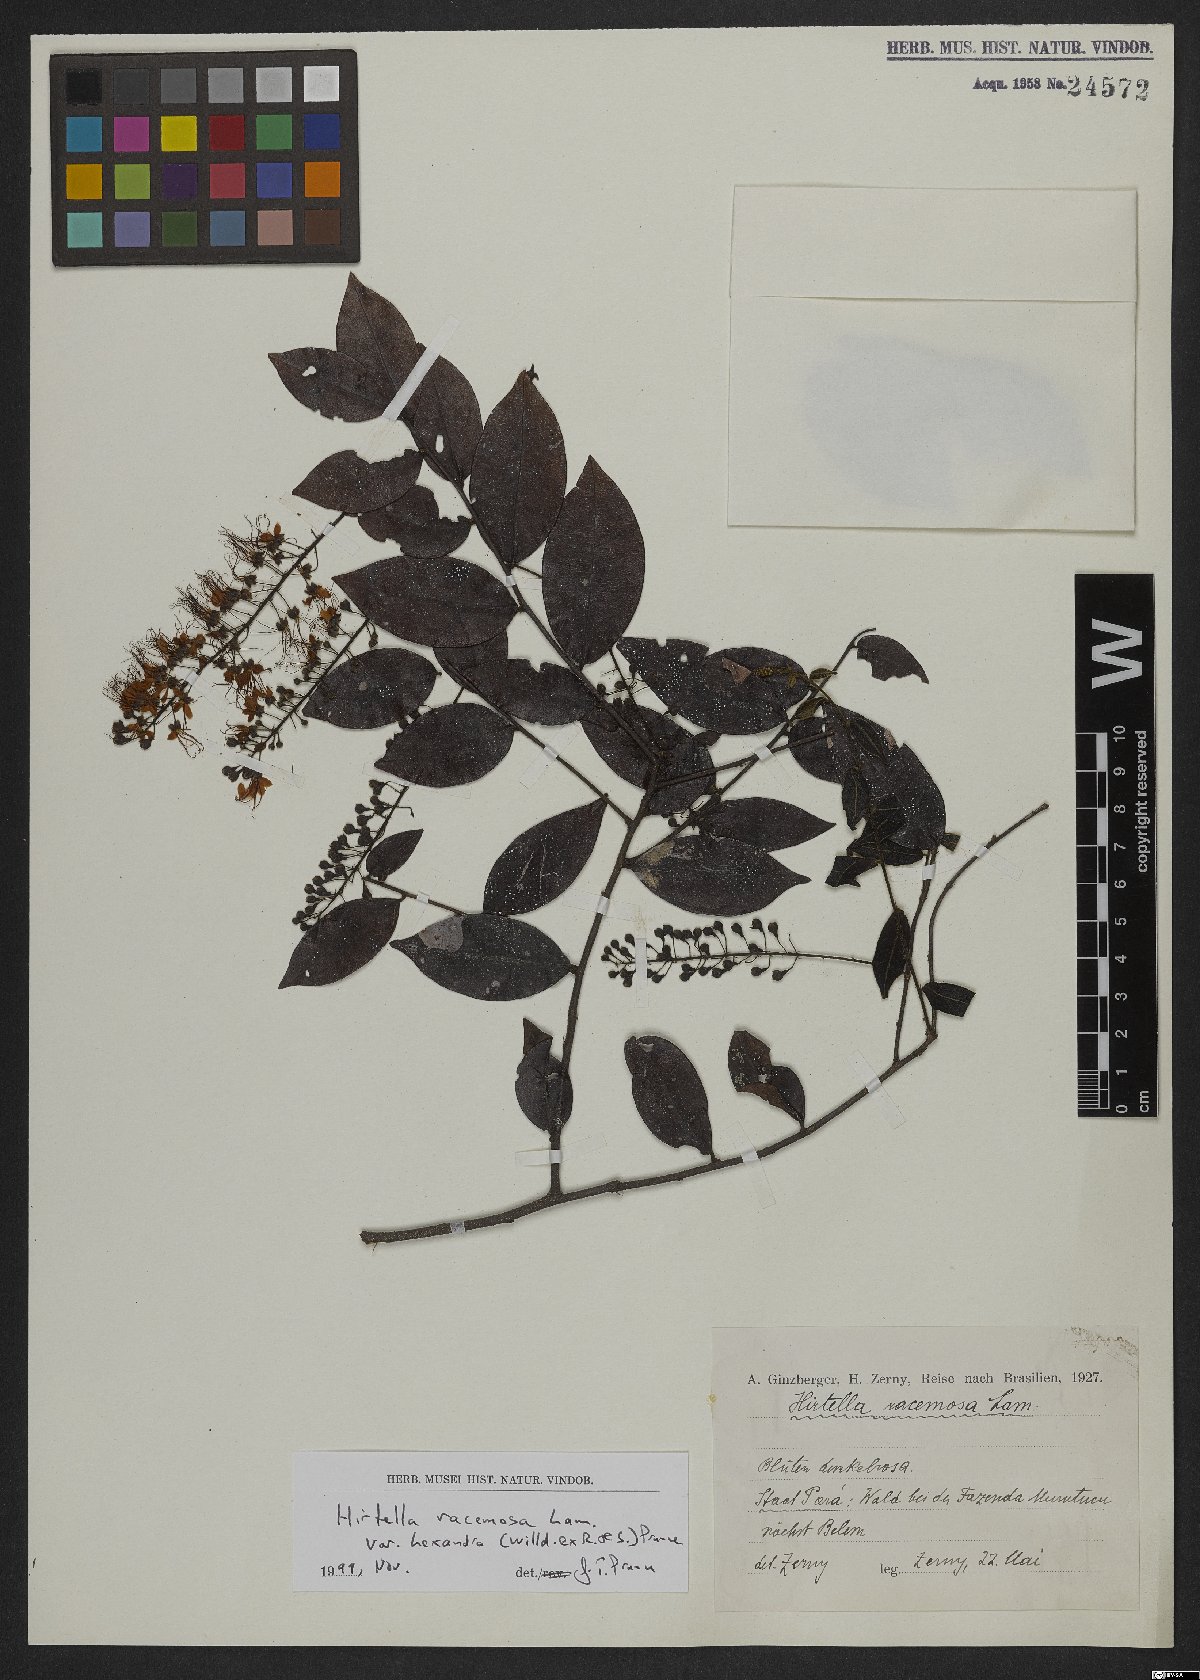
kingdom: Plantae
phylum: Tracheophyta
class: Magnoliopsida
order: Malpighiales
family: Chrysobalanaceae
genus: Hirtella
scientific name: Hirtella racemosa
